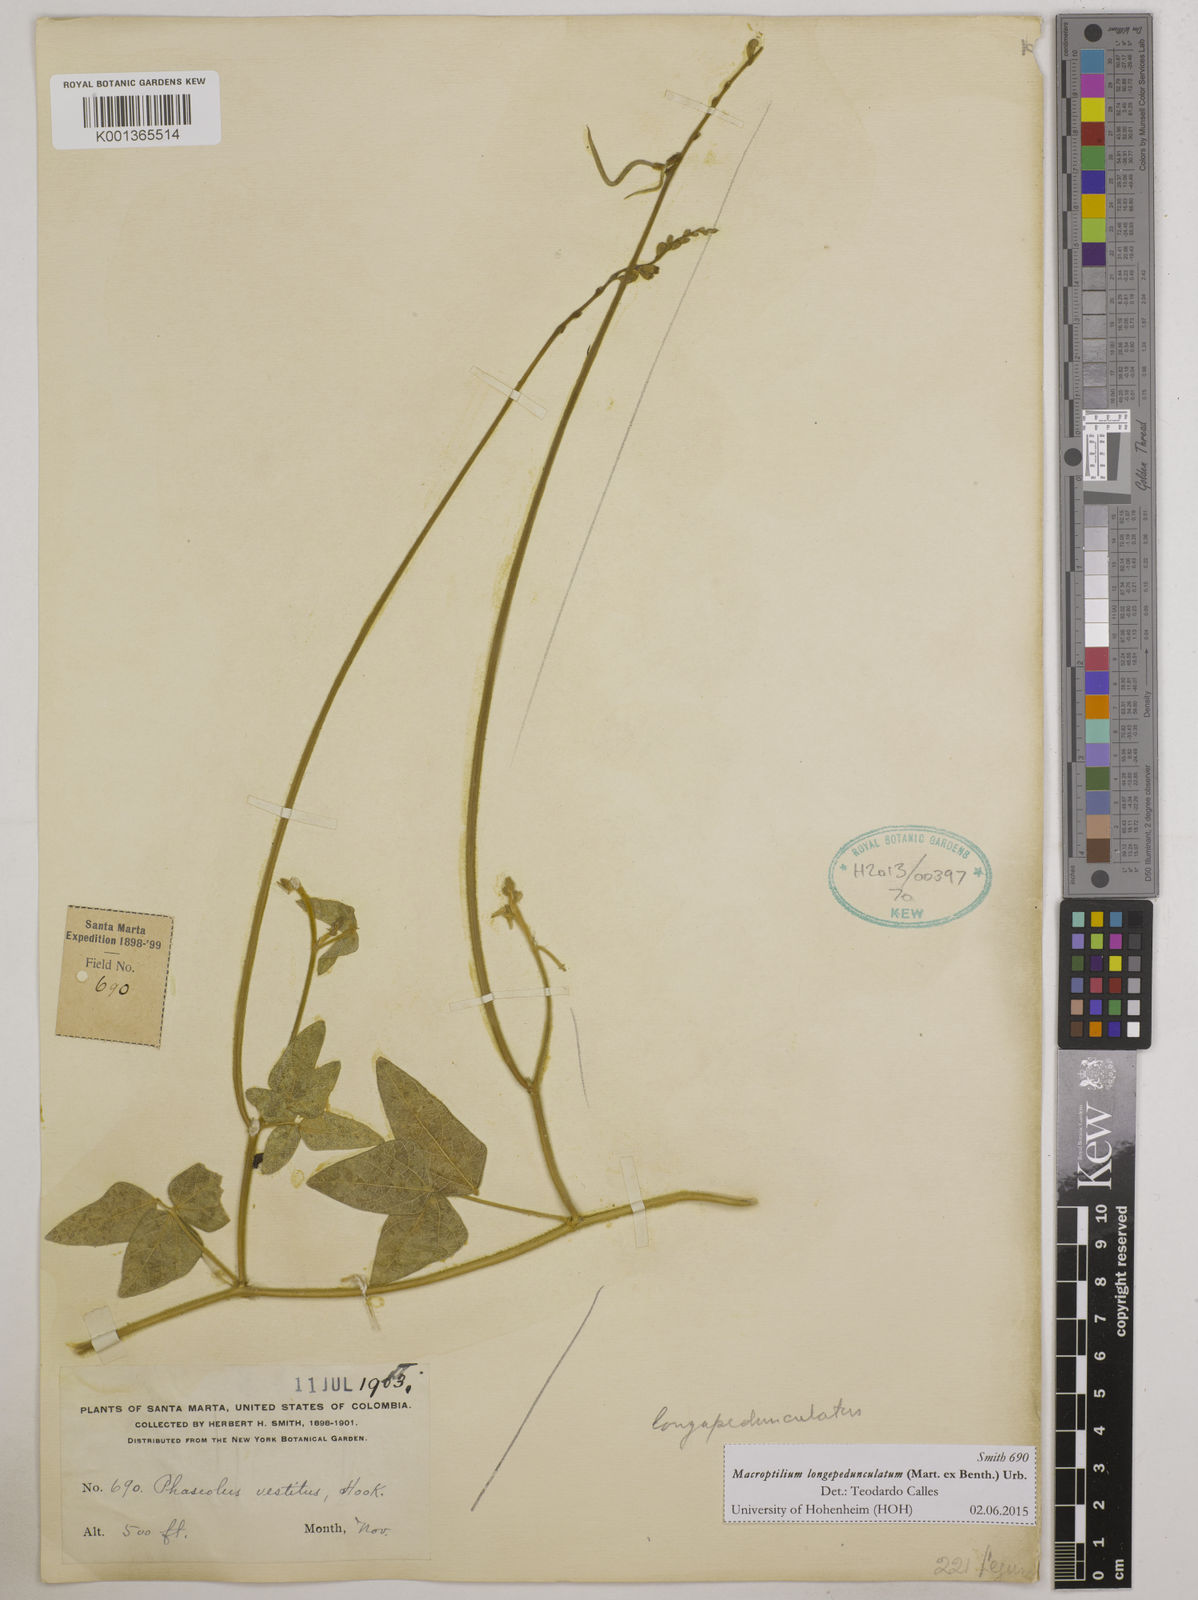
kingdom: Plantae
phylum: Tracheophyta
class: Magnoliopsida
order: Fabales
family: Fabaceae
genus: Macroptilium
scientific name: Macroptilium longepedunculatum
